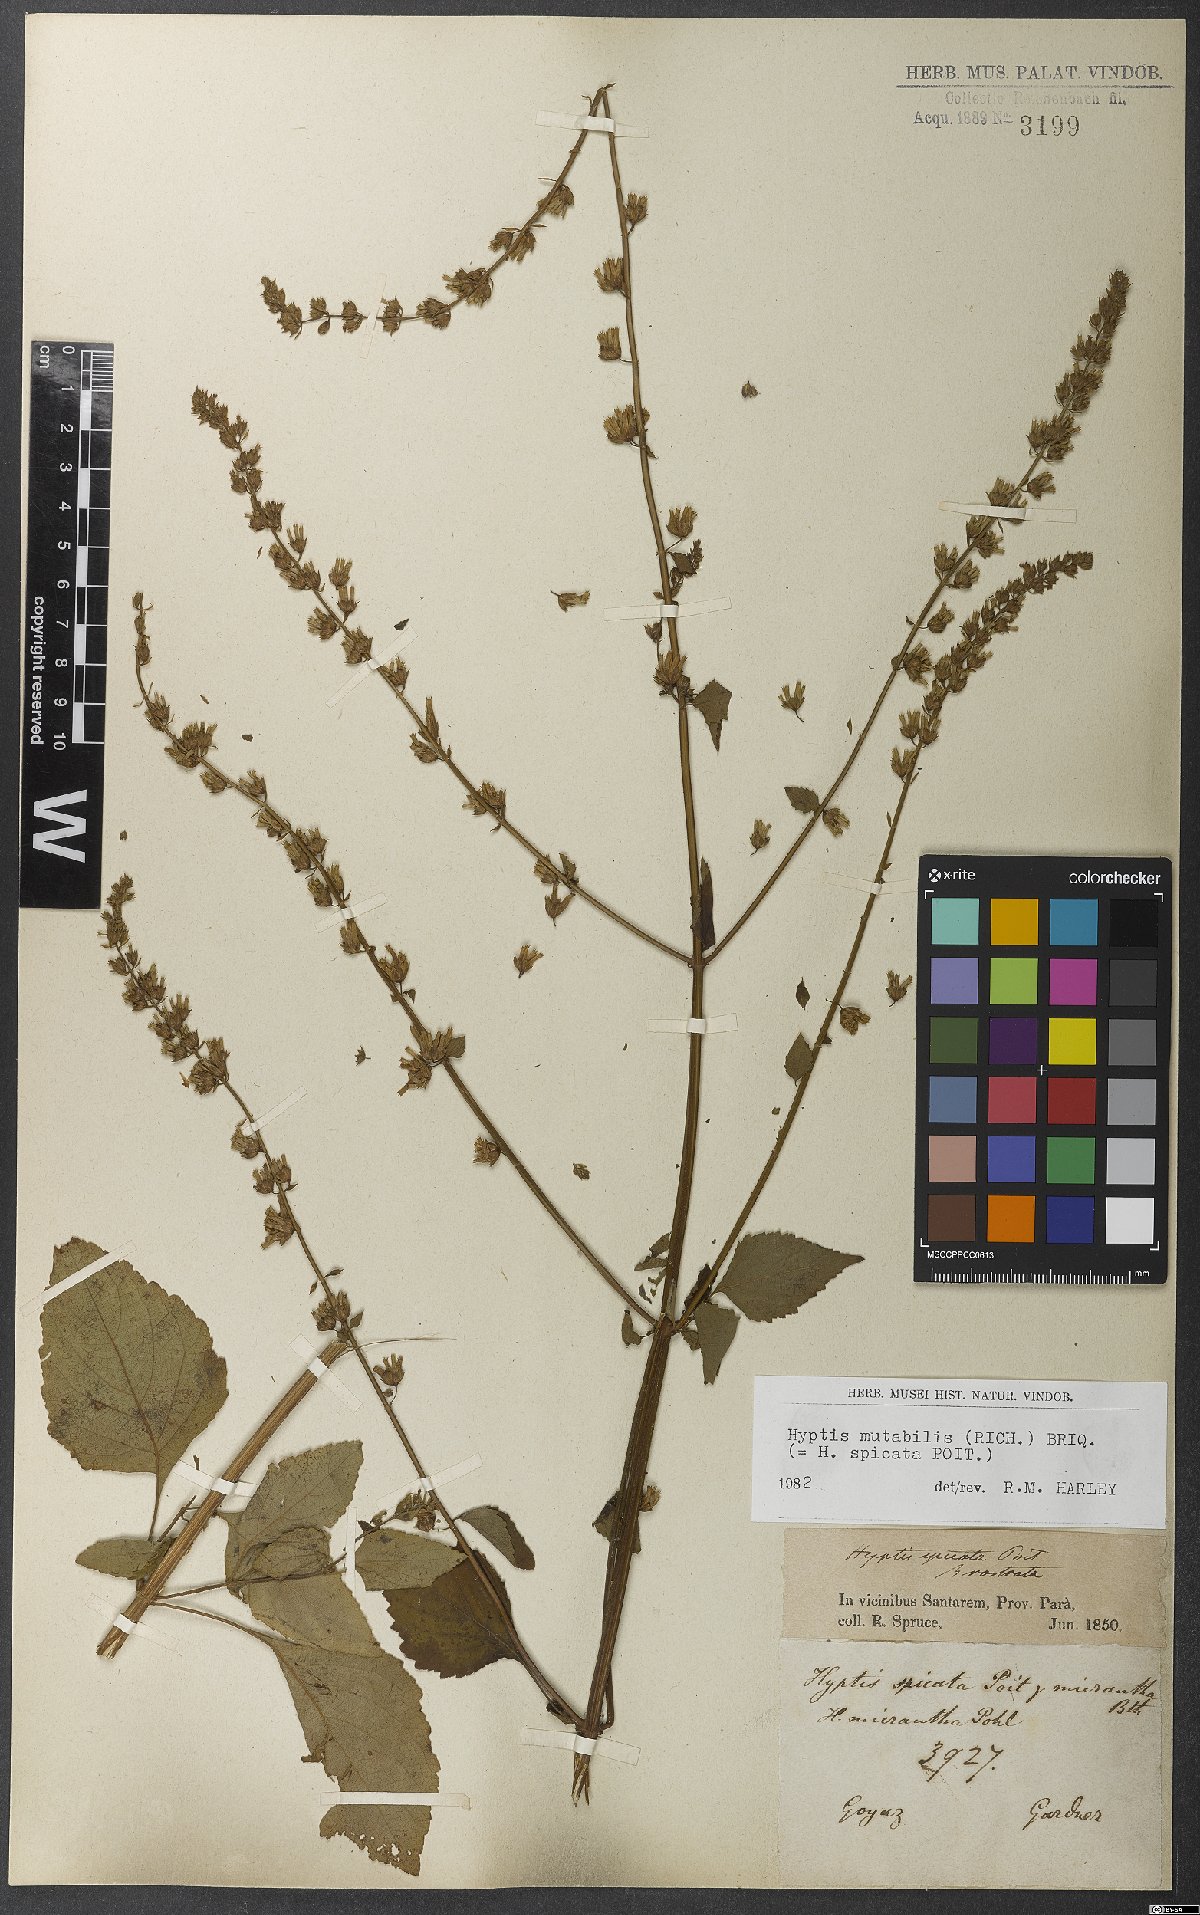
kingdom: Plantae
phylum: Tracheophyta
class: Magnoliopsida
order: Lamiales
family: Lamiaceae
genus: Cantinoa
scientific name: Cantinoa mutabilis
